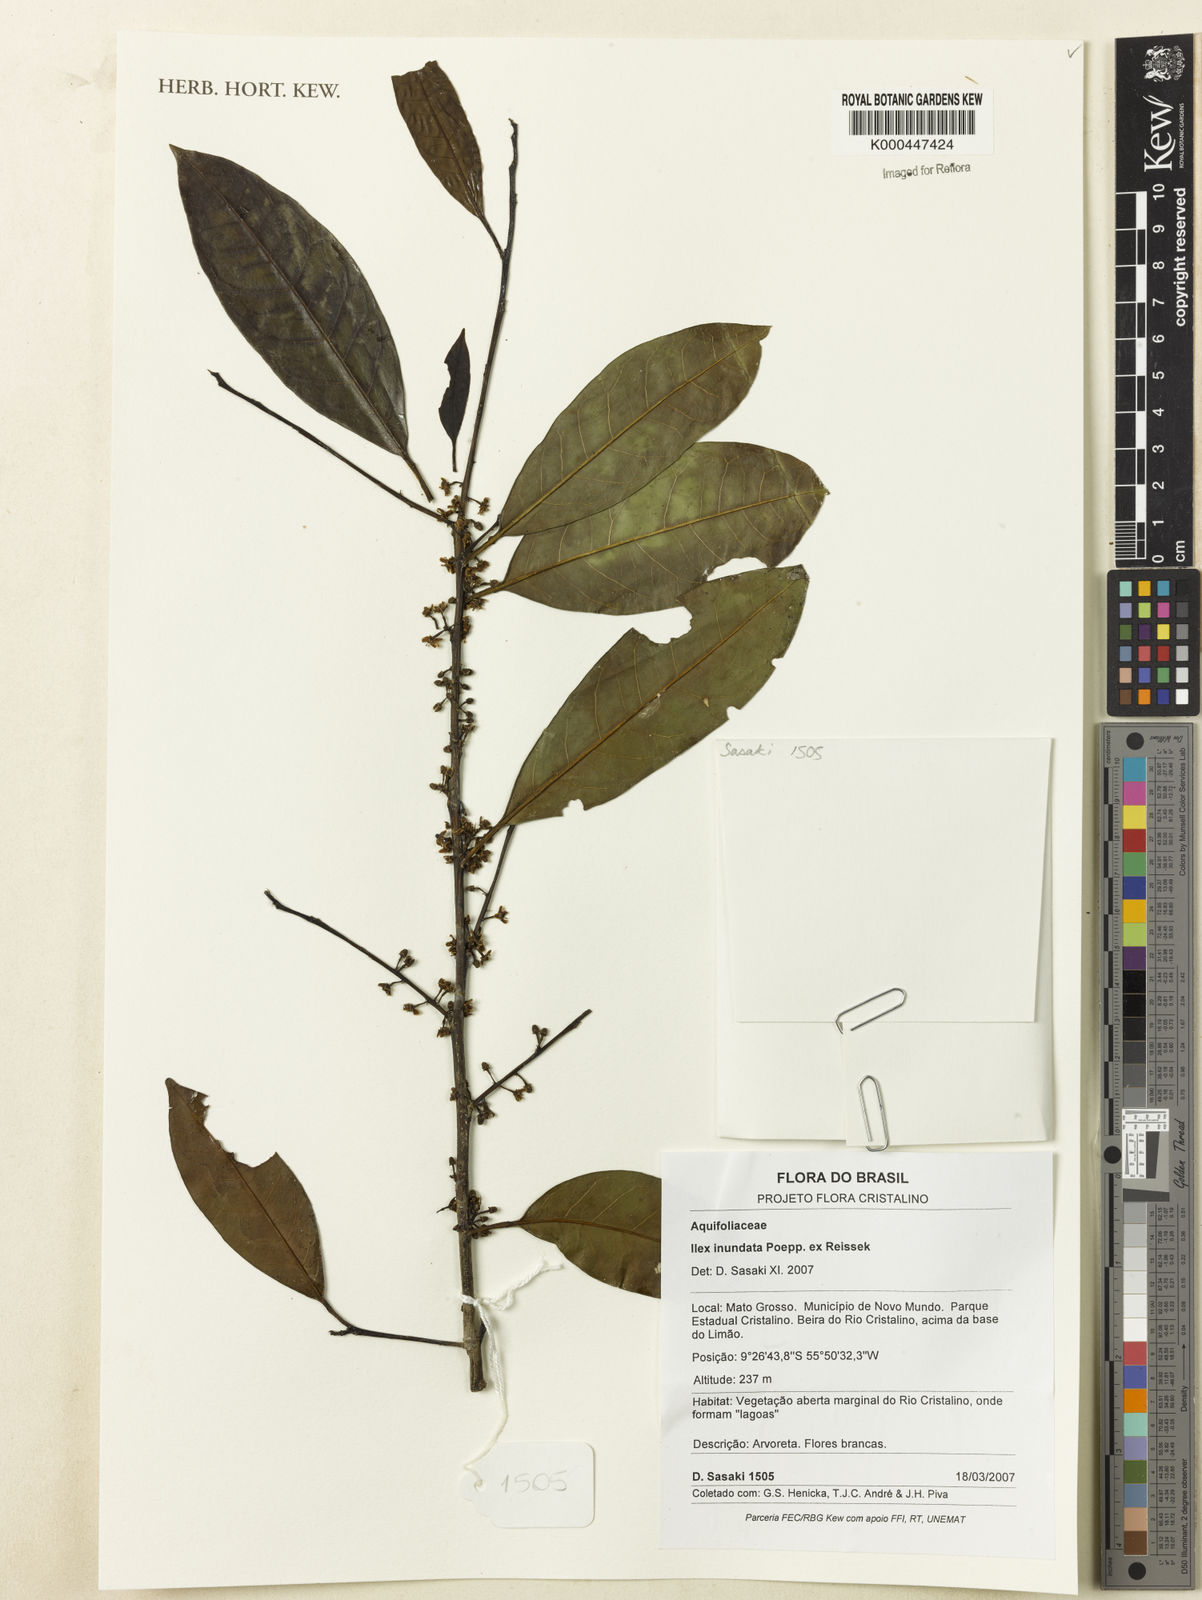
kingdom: Plantae
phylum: Tracheophyta
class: Magnoliopsida
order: Aquifoliales
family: Aquifoliaceae
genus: Ilex
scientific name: Ilex inundata
